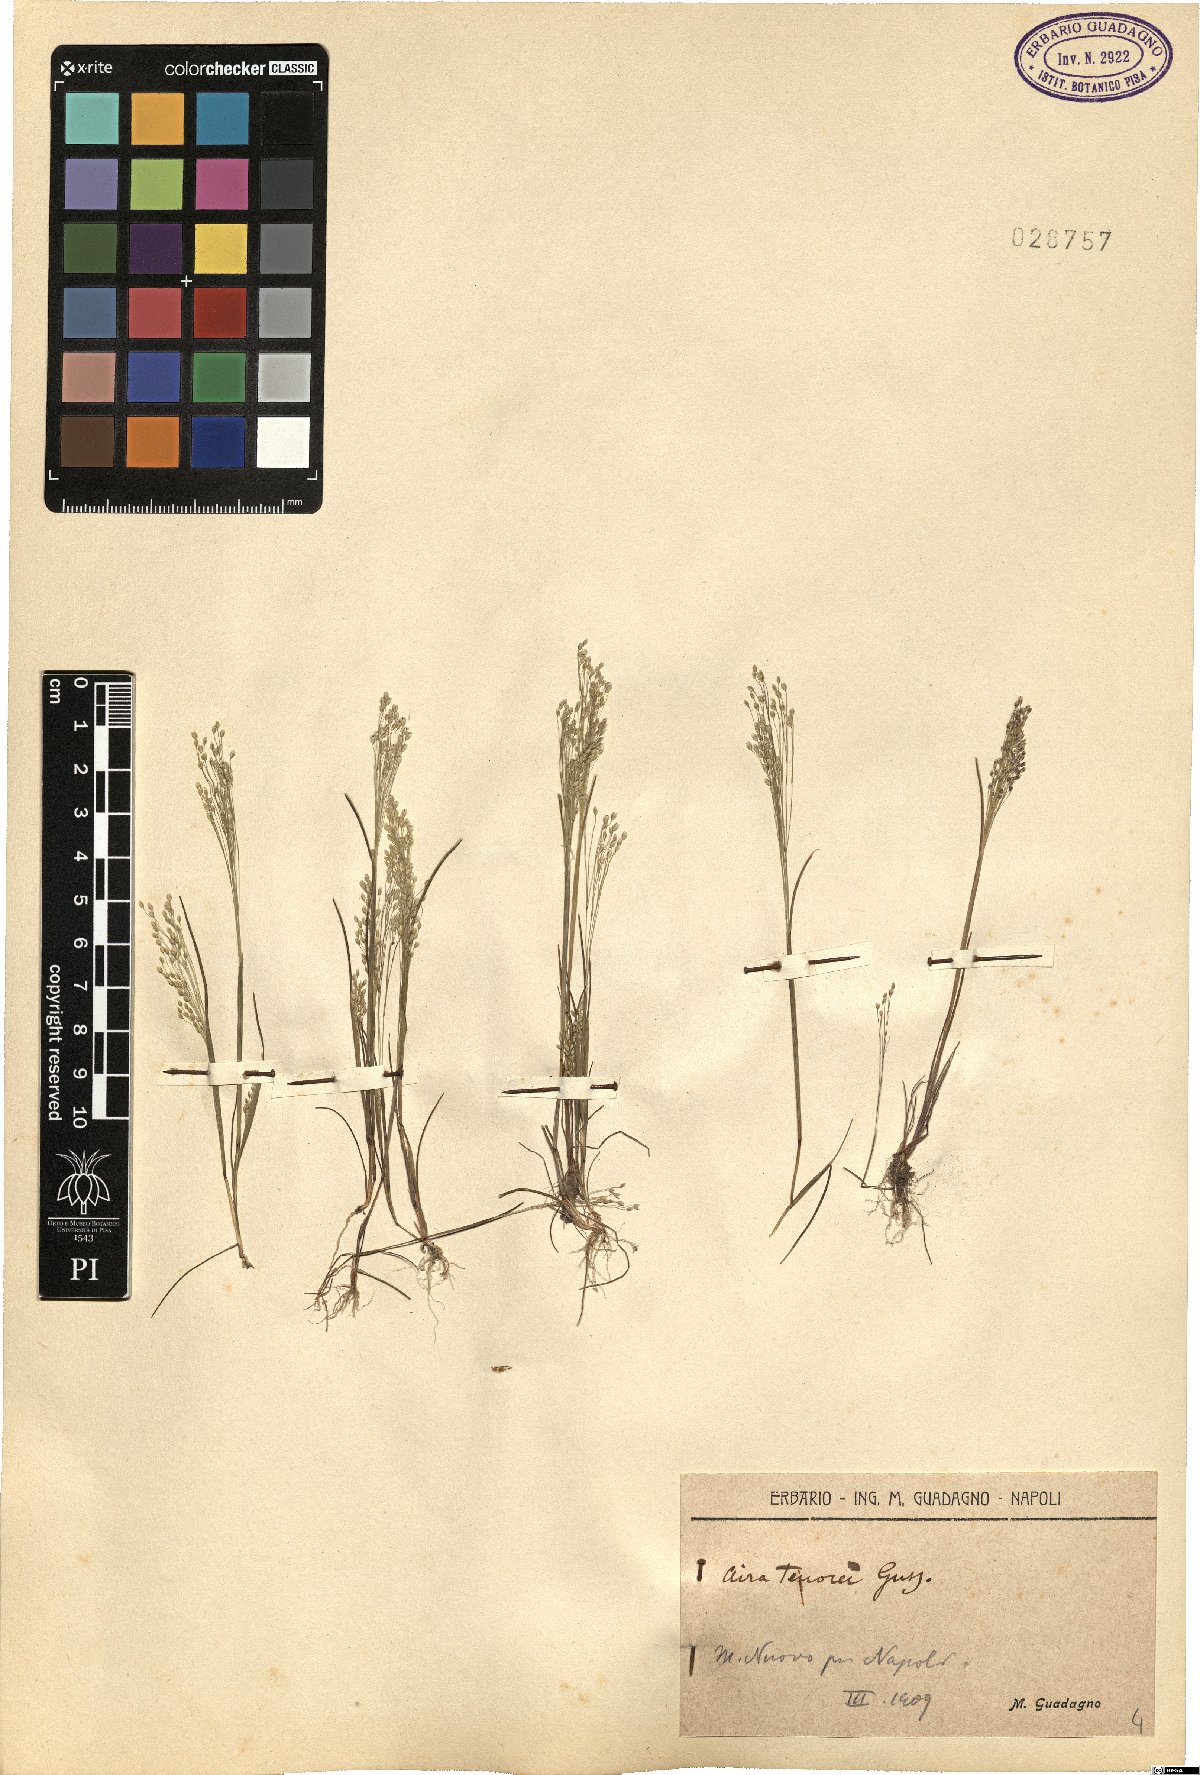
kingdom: Plantae
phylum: Tracheophyta
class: Liliopsida
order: Poales
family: Poaceae
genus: Aira
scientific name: Aira tenorei
